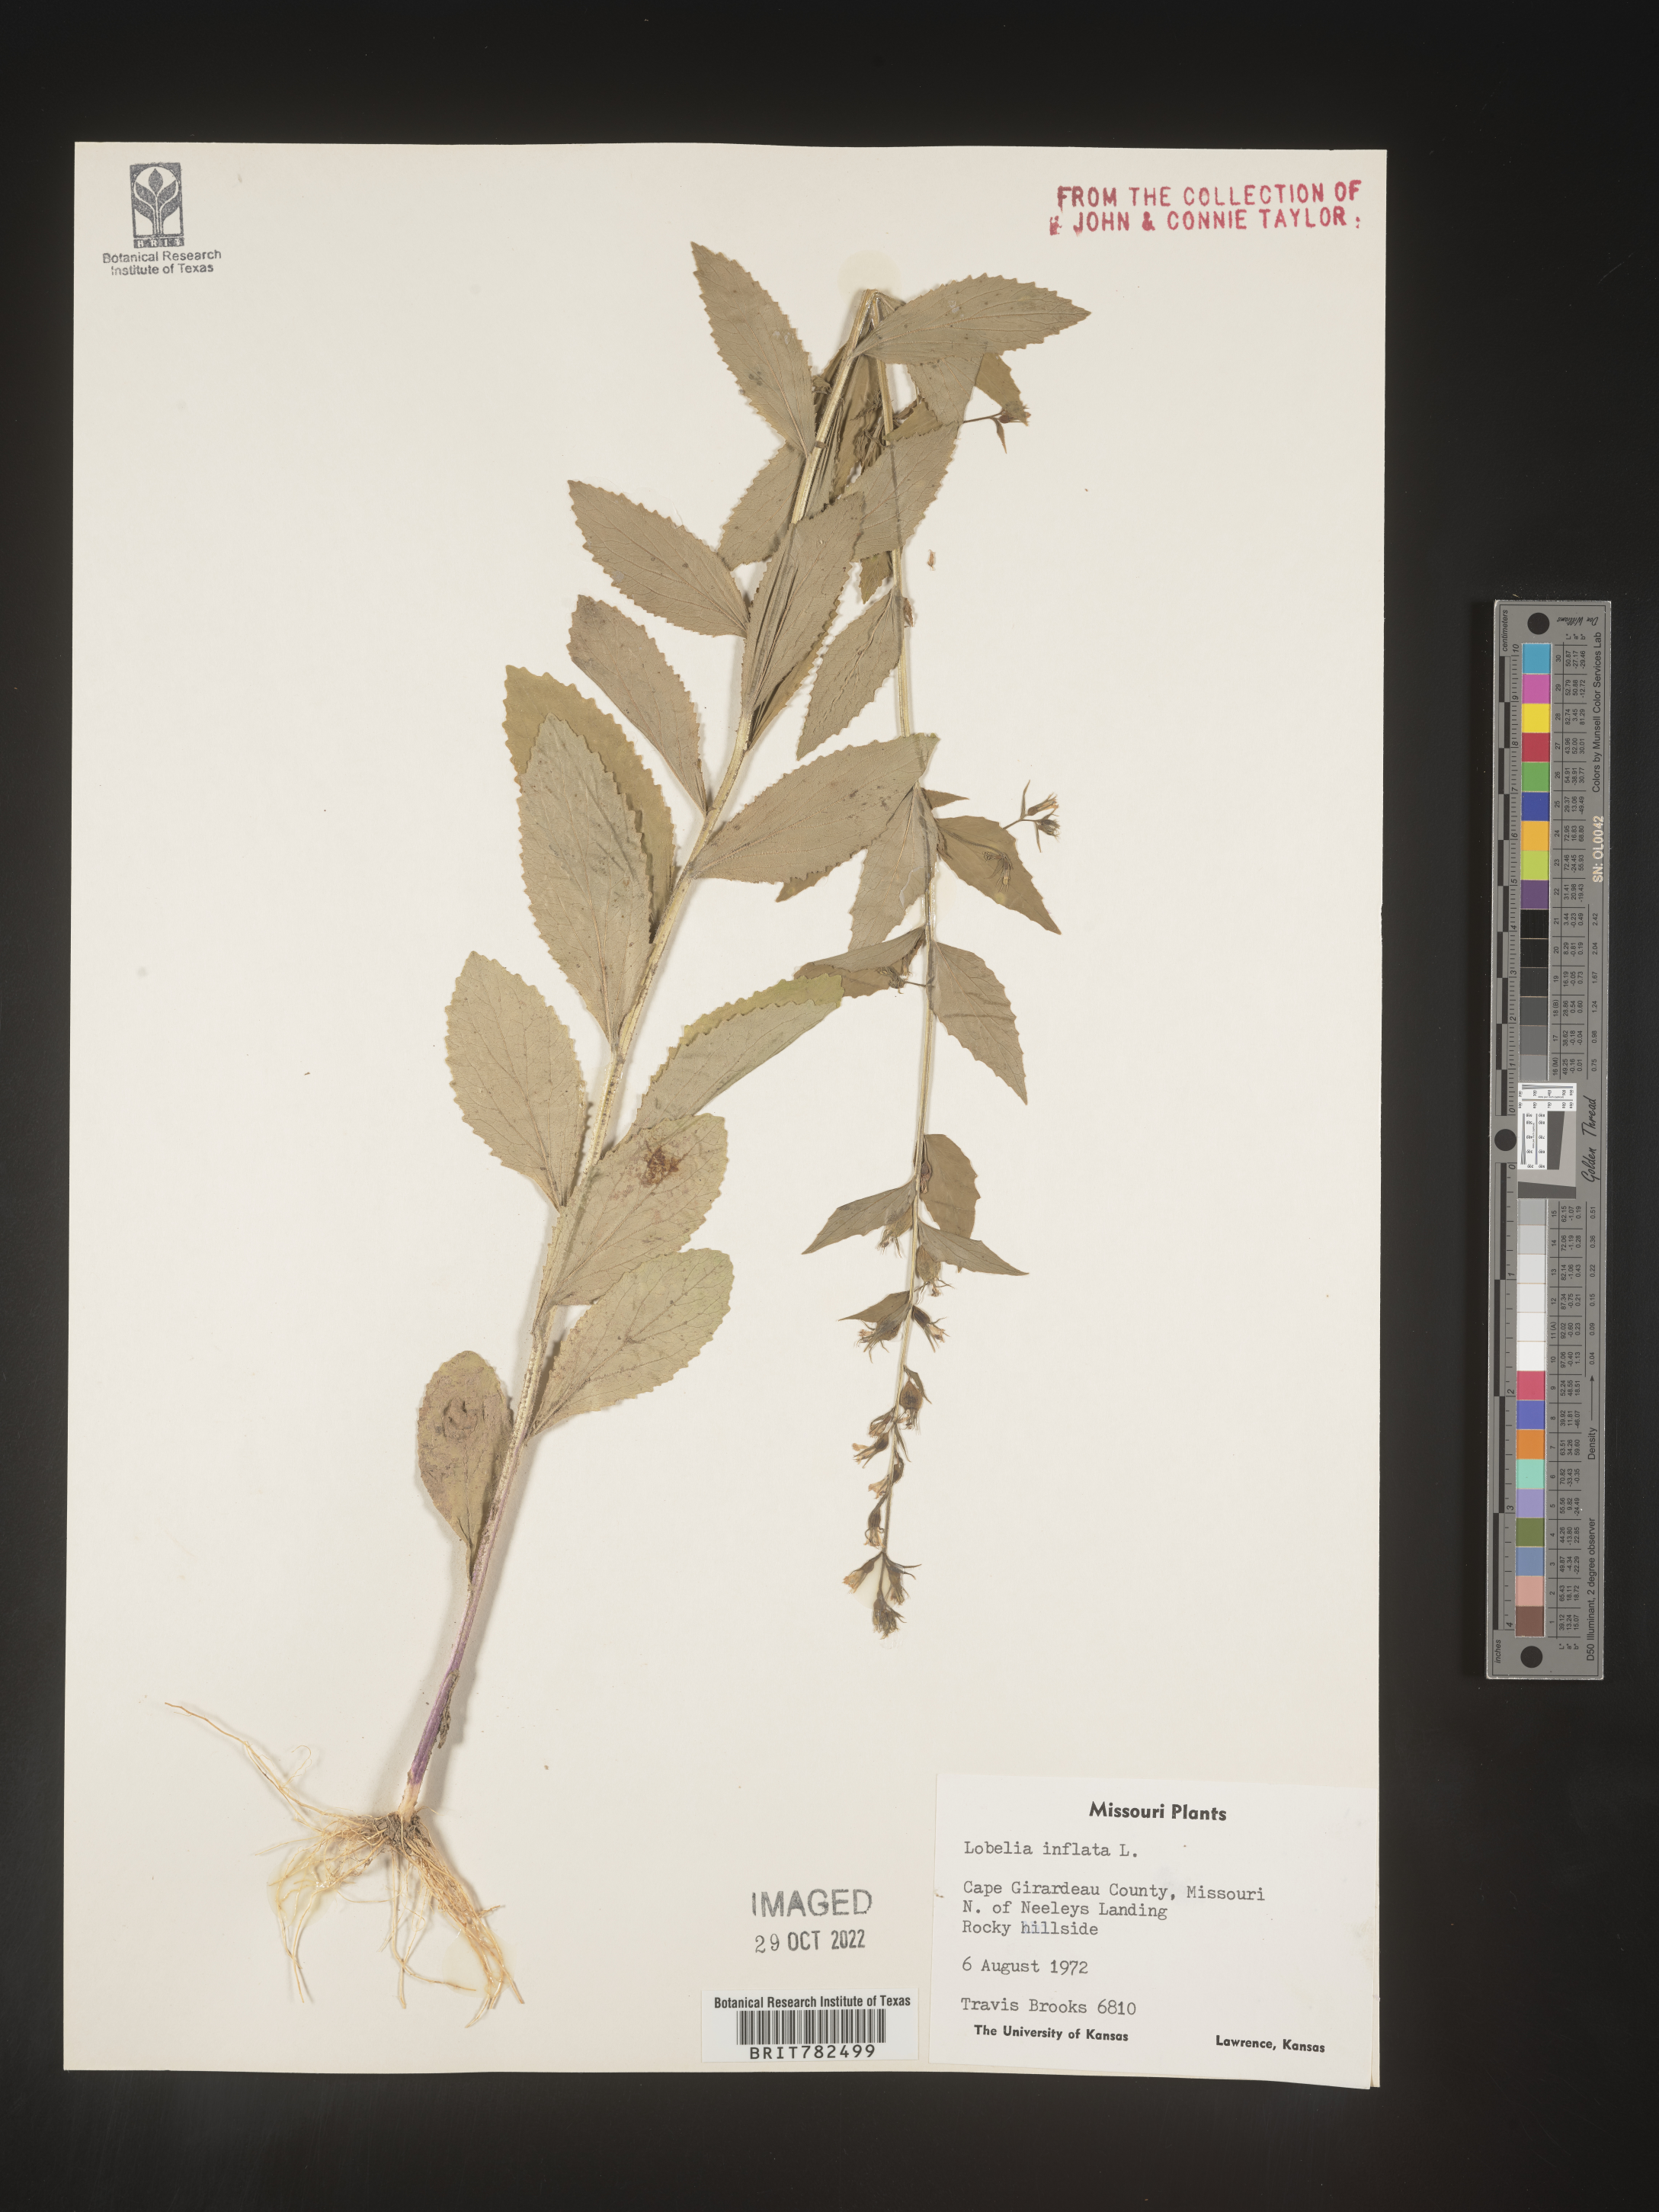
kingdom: Plantae
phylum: Tracheophyta
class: Magnoliopsida
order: Asterales
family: Campanulaceae
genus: Lobelia
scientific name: Lobelia inflata
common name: Indian tobacco
